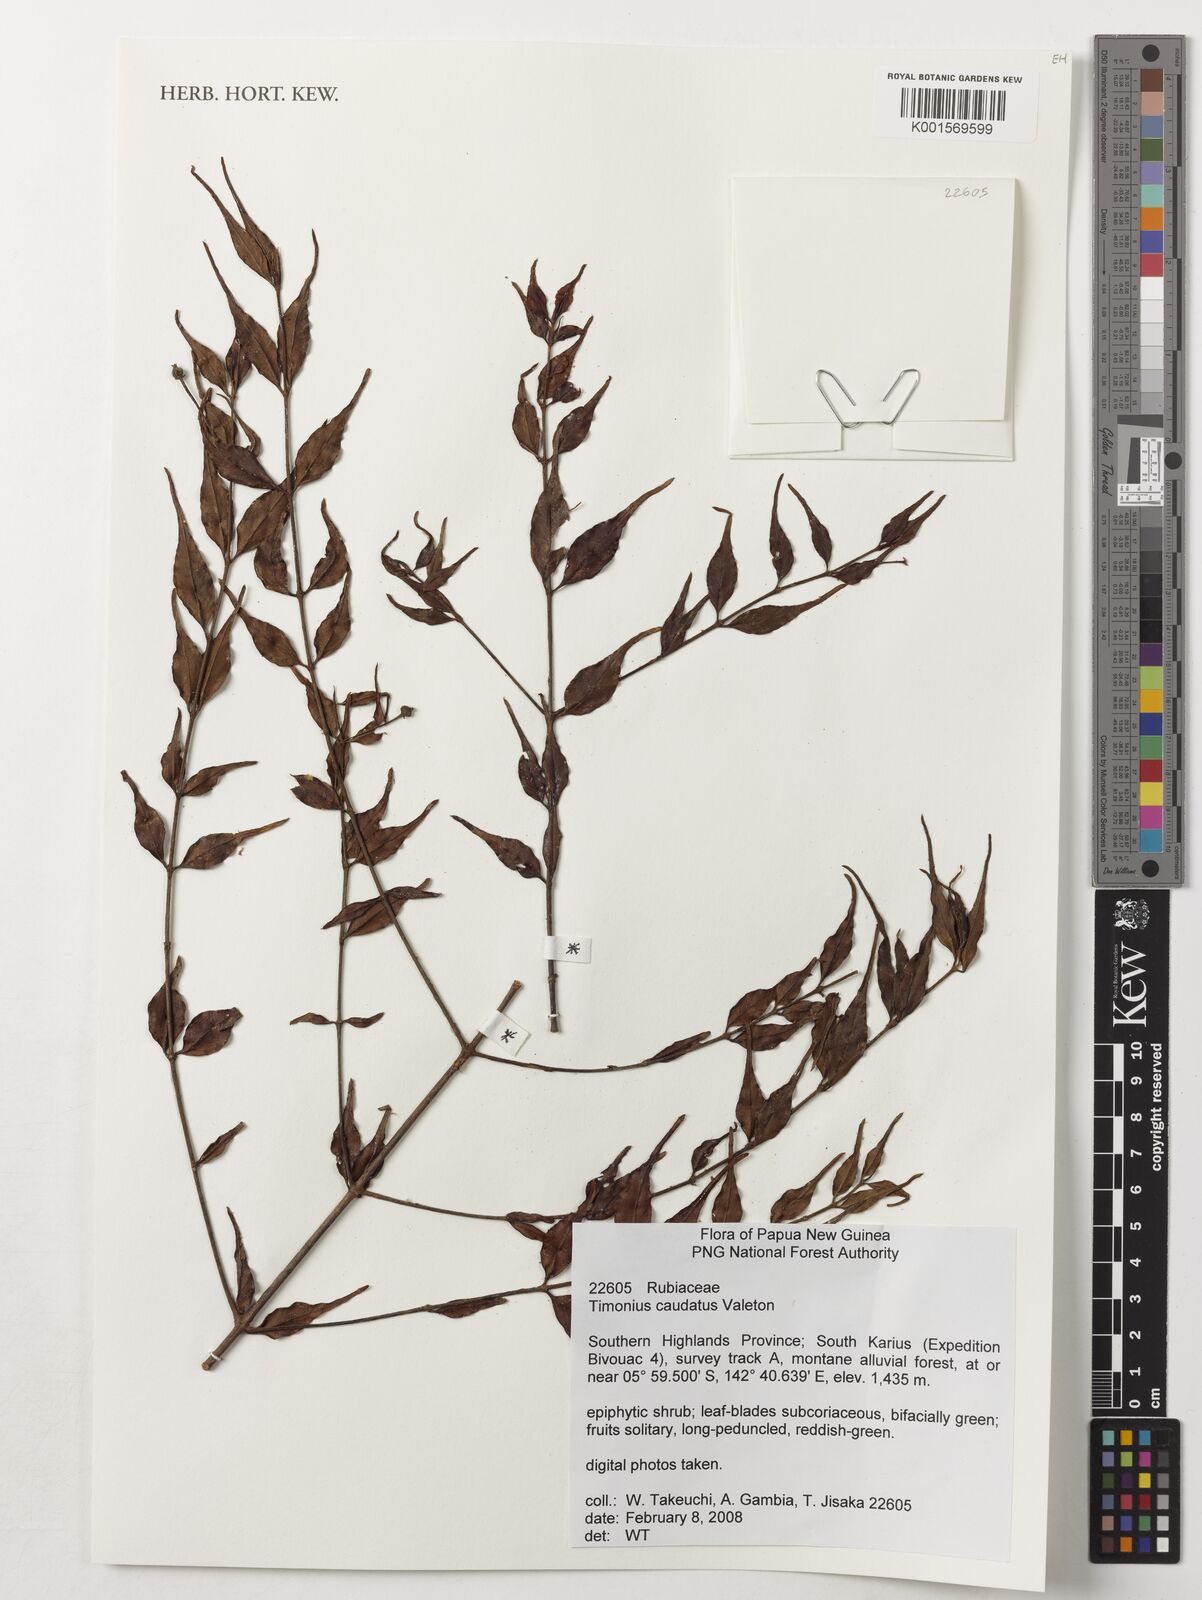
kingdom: Plantae
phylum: Tracheophyta
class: Magnoliopsida
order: Gentianales
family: Rubiaceae
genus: Timonius
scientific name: Timonius caudatus
